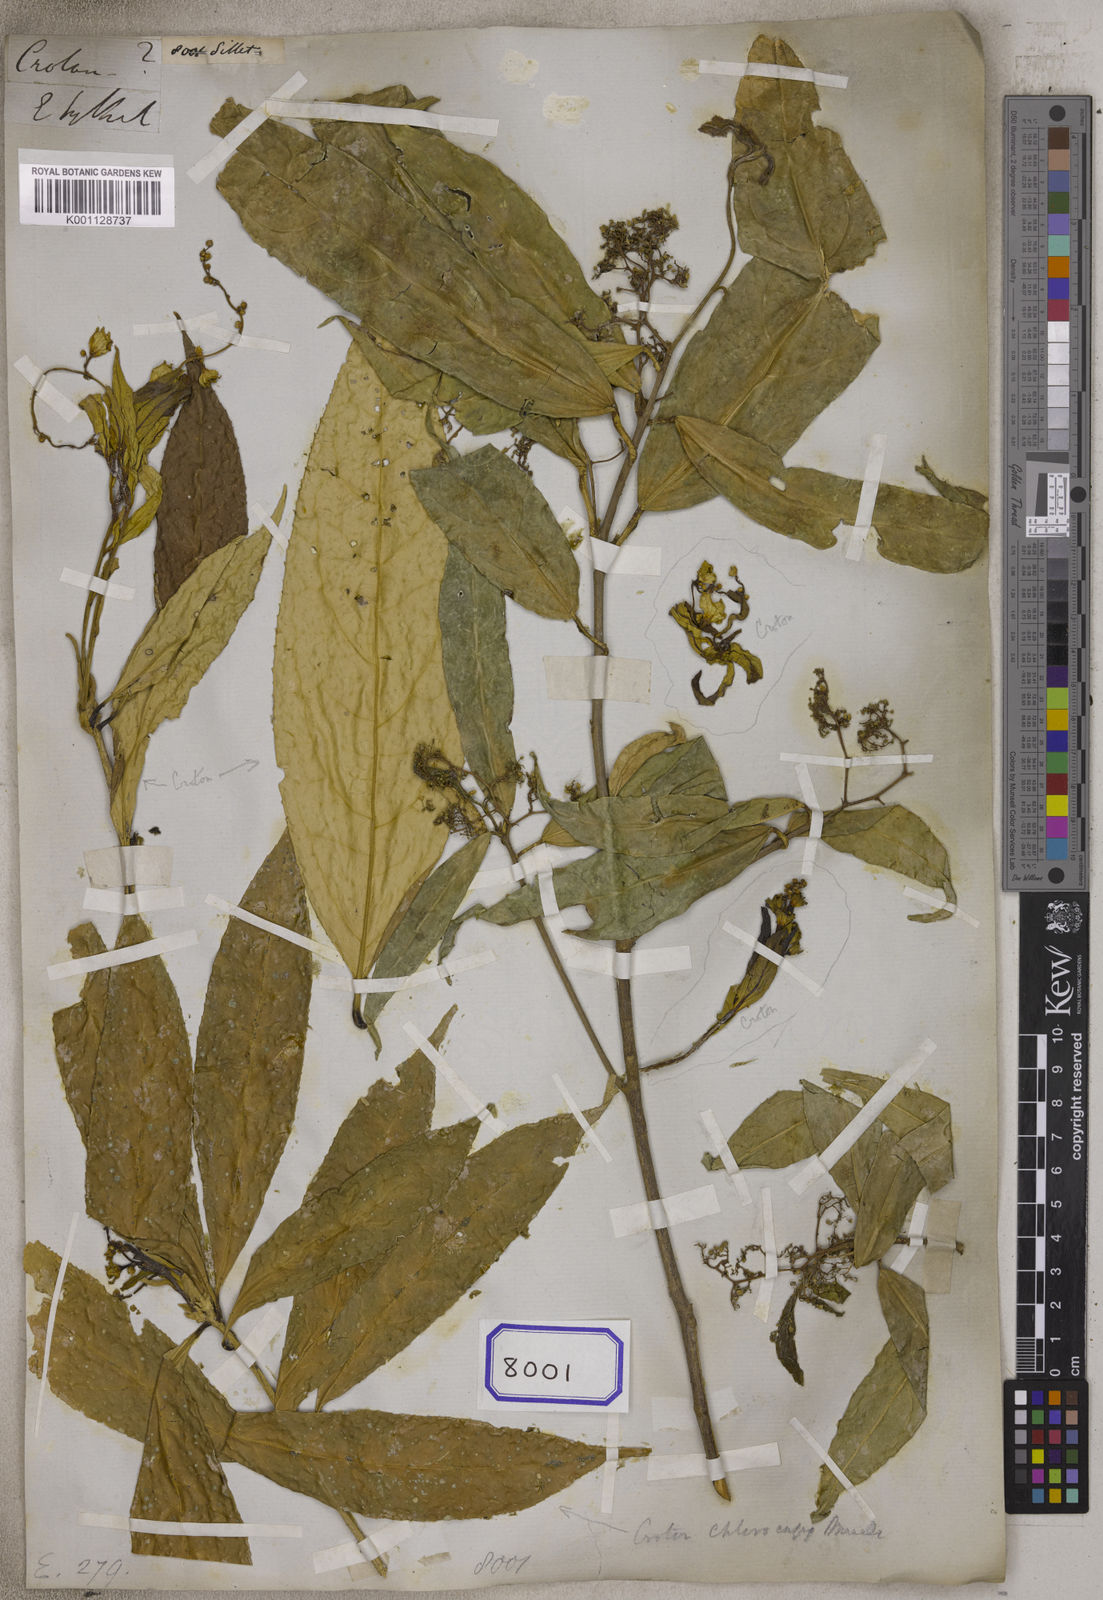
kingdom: Plantae
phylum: Tracheophyta
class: Magnoliopsida
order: Malpighiales
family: Euphorbiaceae
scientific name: Euphorbiaceae
